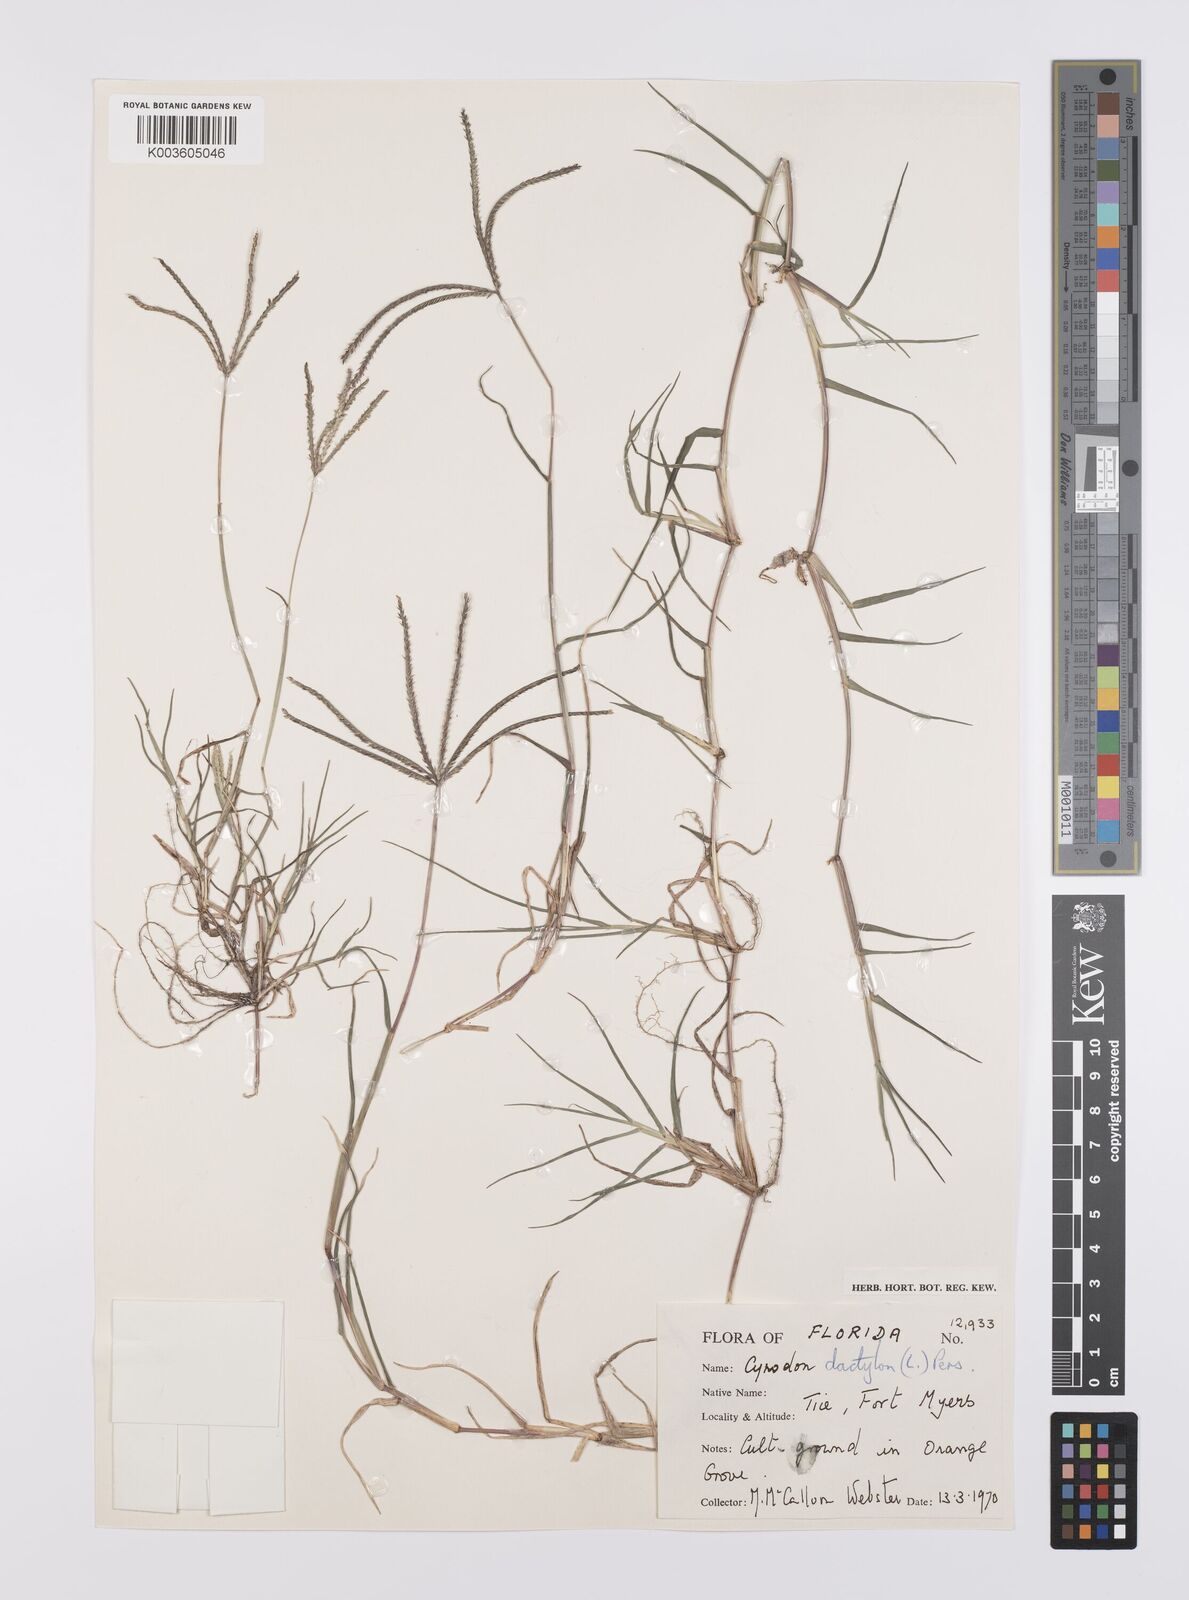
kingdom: Plantae
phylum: Tracheophyta
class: Liliopsida
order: Poales
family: Poaceae
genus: Cynodon
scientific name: Cynodon dactylon
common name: Bermuda grass
